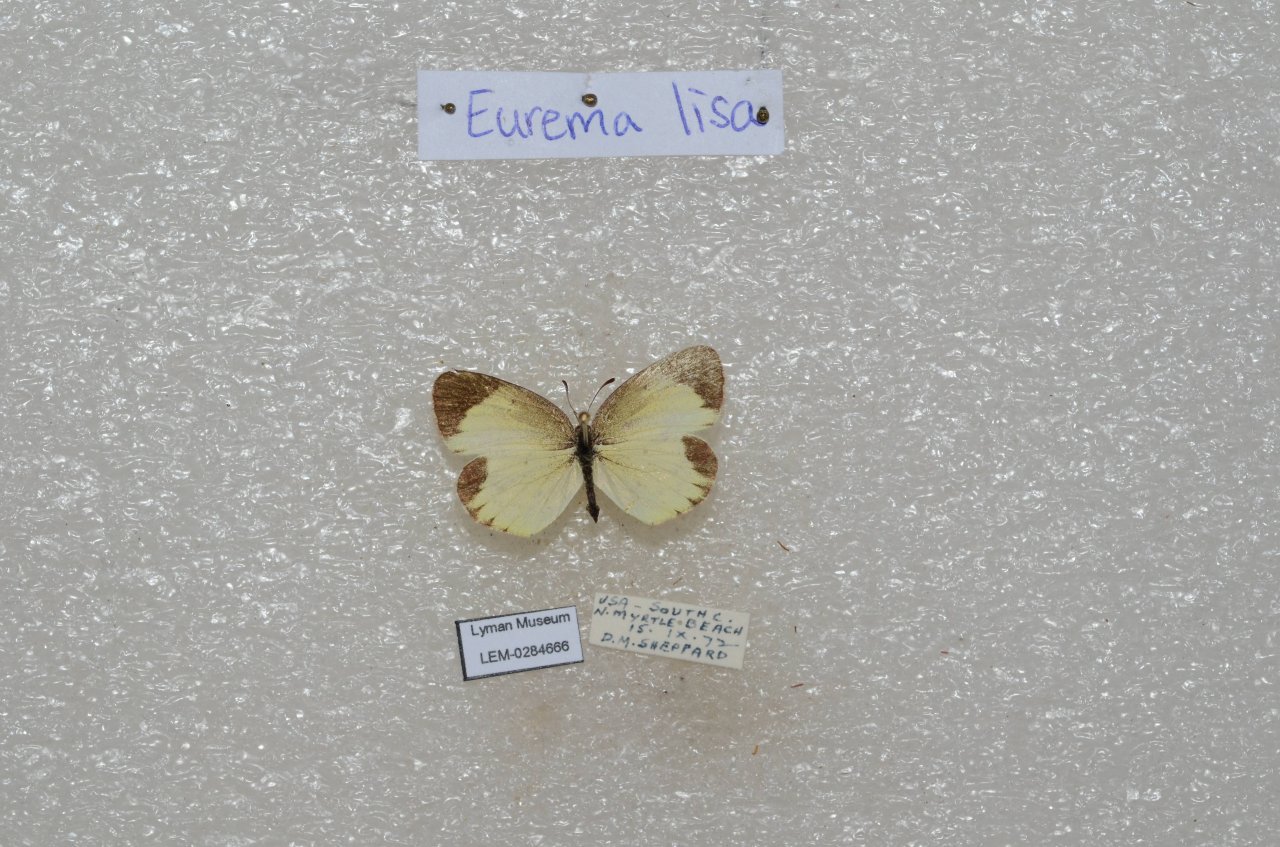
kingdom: Animalia
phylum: Arthropoda
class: Insecta
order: Lepidoptera
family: Pieridae
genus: Pyrisitia
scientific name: Pyrisitia lisa
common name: Little Yellow
